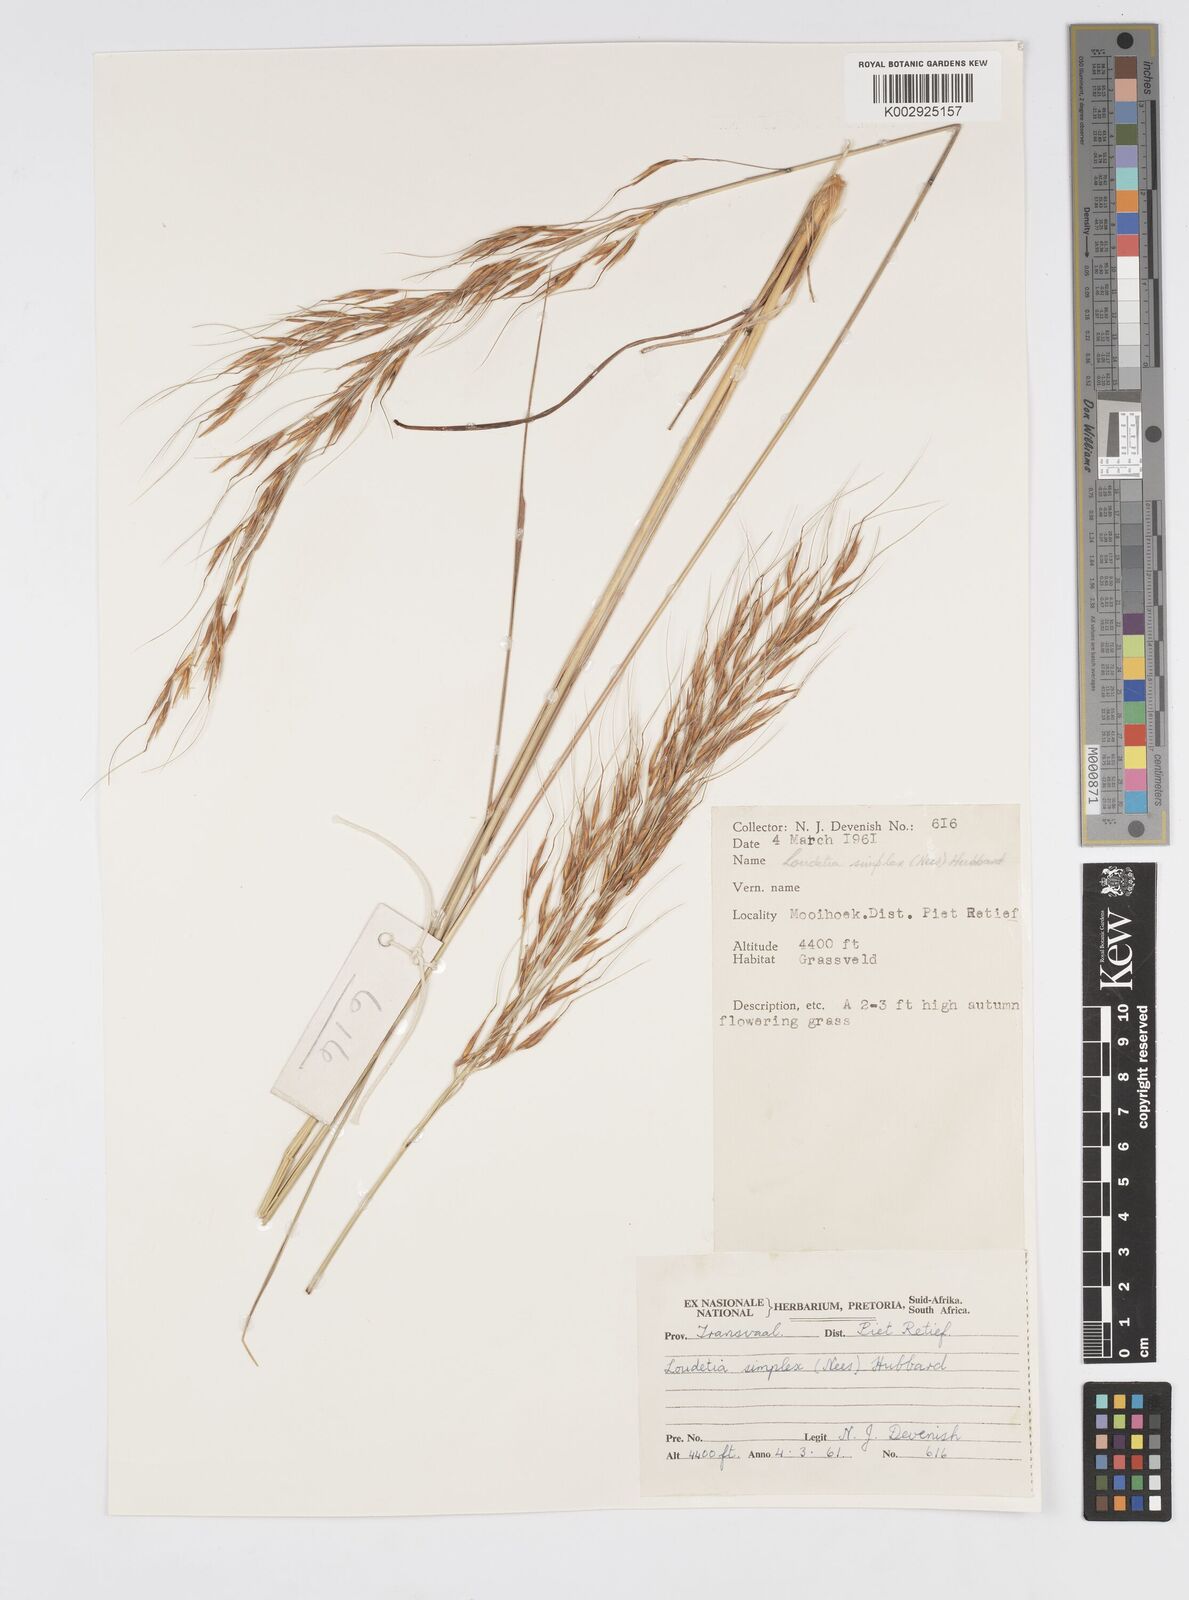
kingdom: Plantae
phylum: Tracheophyta
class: Liliopsida
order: Poales
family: Poaceae
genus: Loudetia
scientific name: Loudetia simplex
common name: Common russet grass
